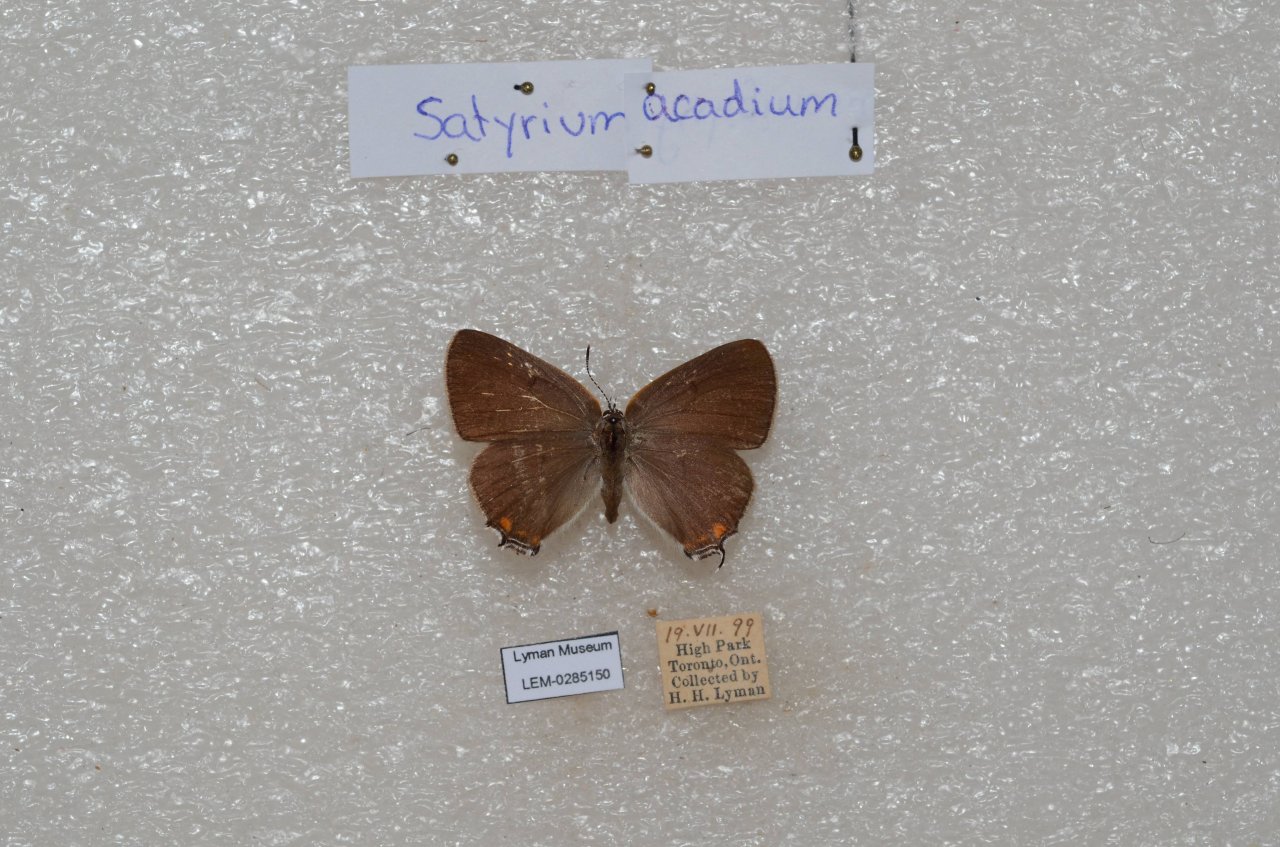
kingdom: Animalia
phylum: Arthropoda
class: Insecta
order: Lepidoptera
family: Lycaenidae
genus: Strymon
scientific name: Strymon acadica
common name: Acadian Hairstreak
